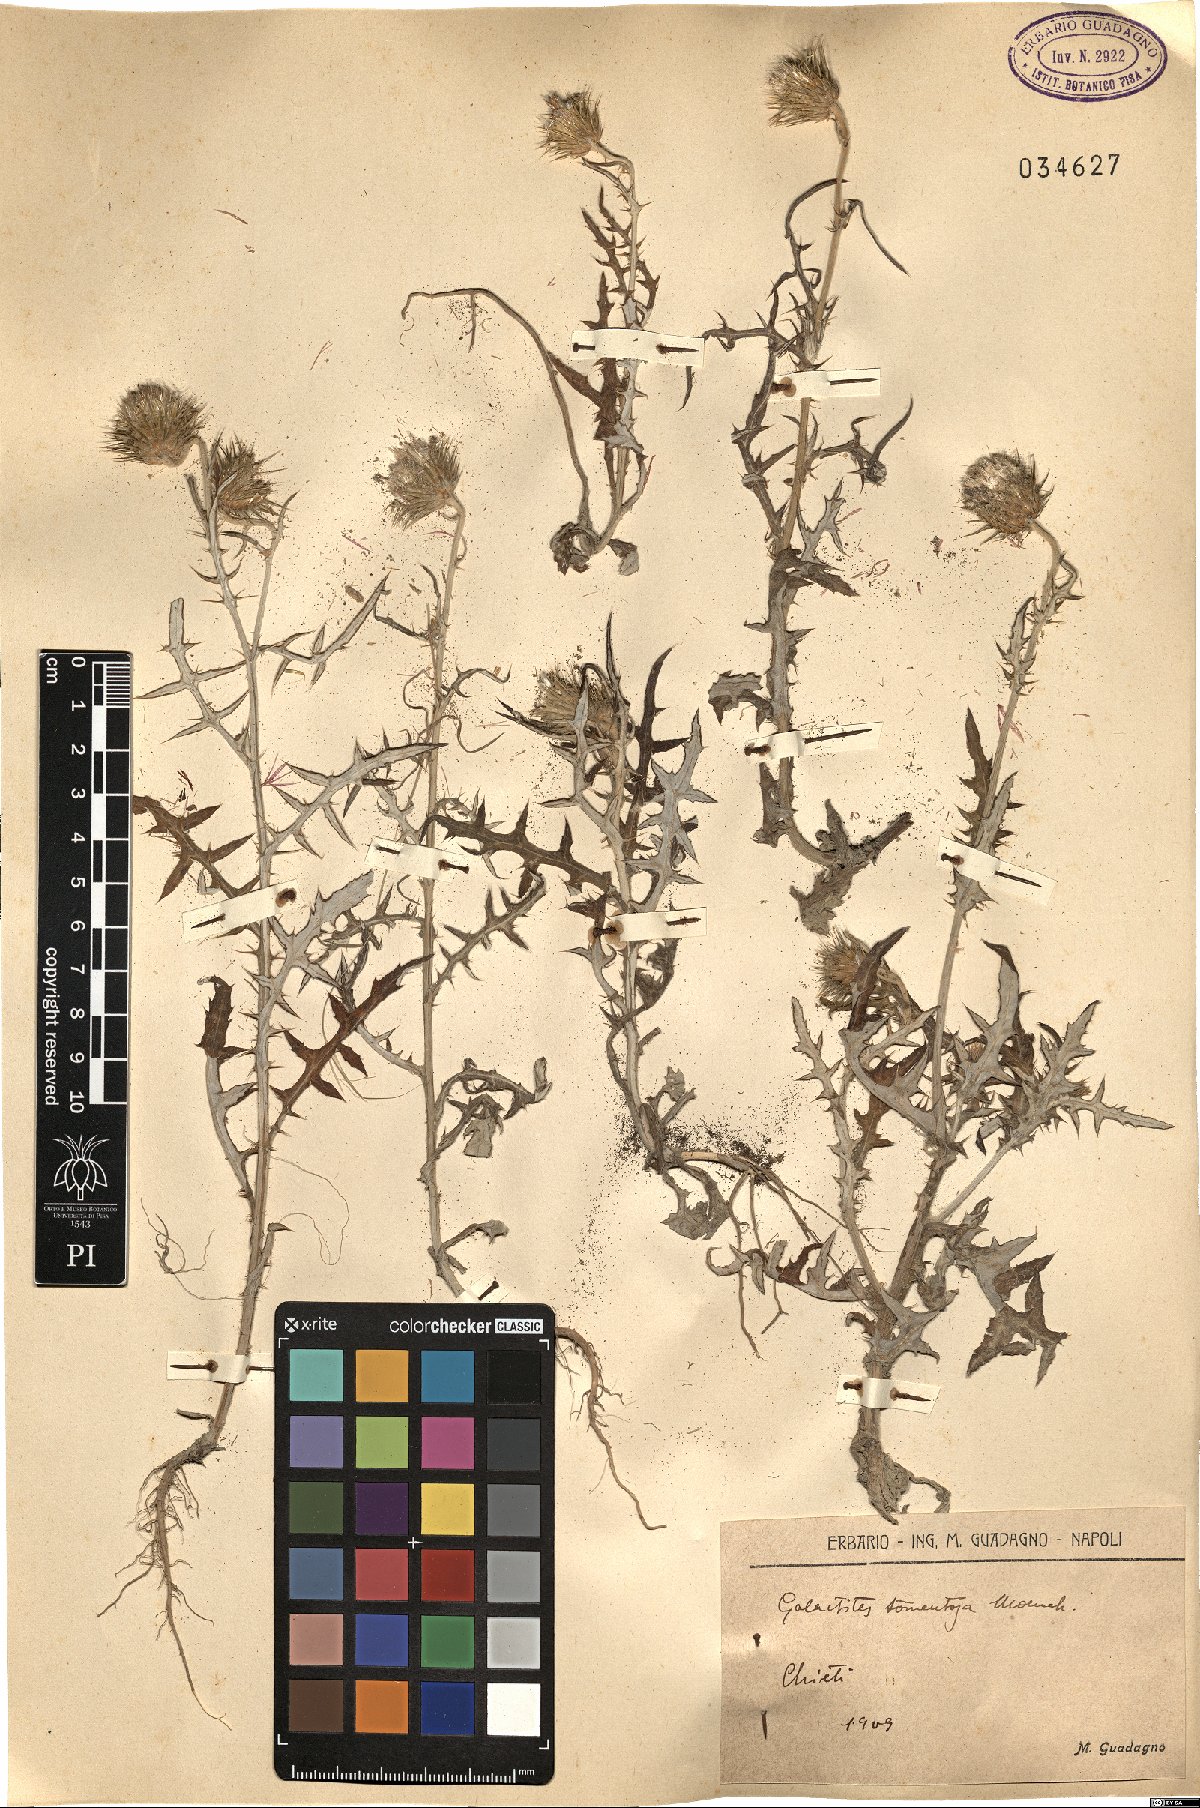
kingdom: Plantae
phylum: Tracheophyta
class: Magnoliopsida
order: Asterales
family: Asteraceae
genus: Galactites
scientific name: Galactites tomentosa
